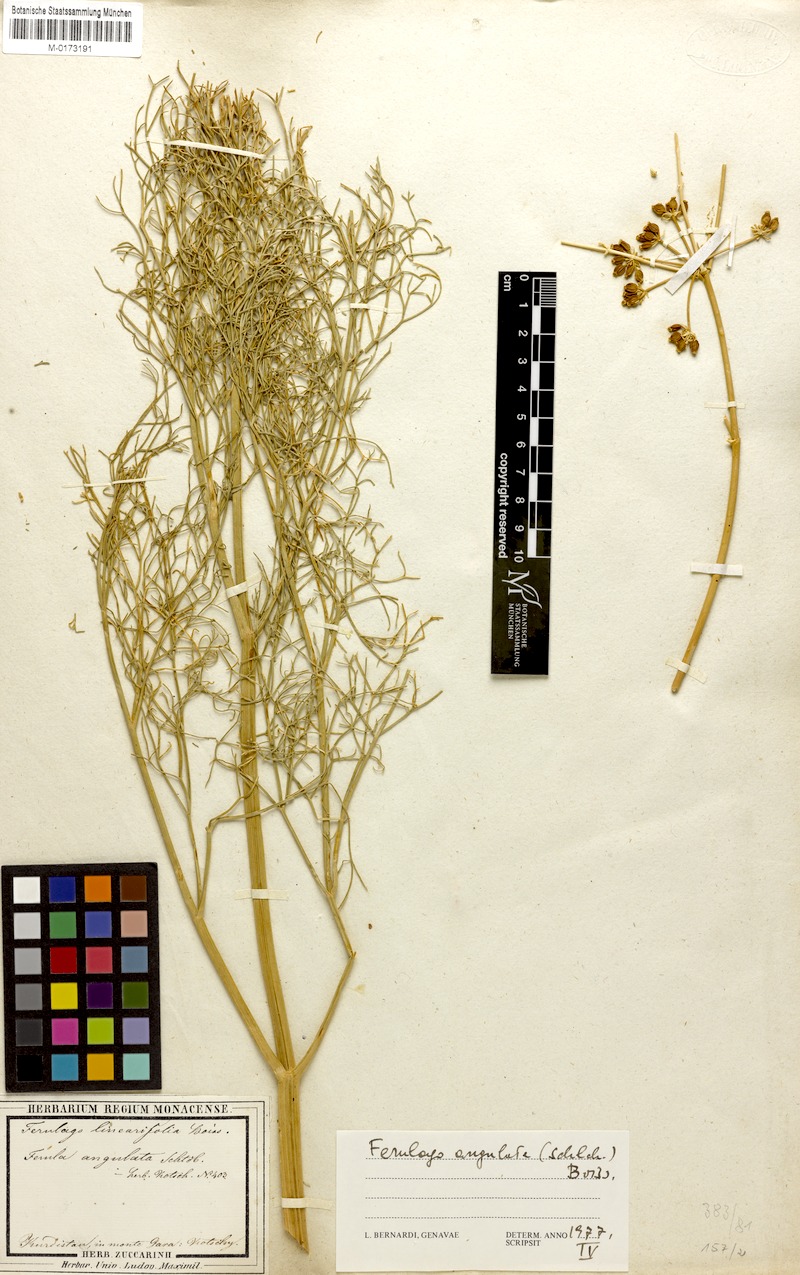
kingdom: Plantae
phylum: Tracheophyta
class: Magnoliopsida
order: Apiales
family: Apiaceae
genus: Ferulago
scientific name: Ferulago angulata
